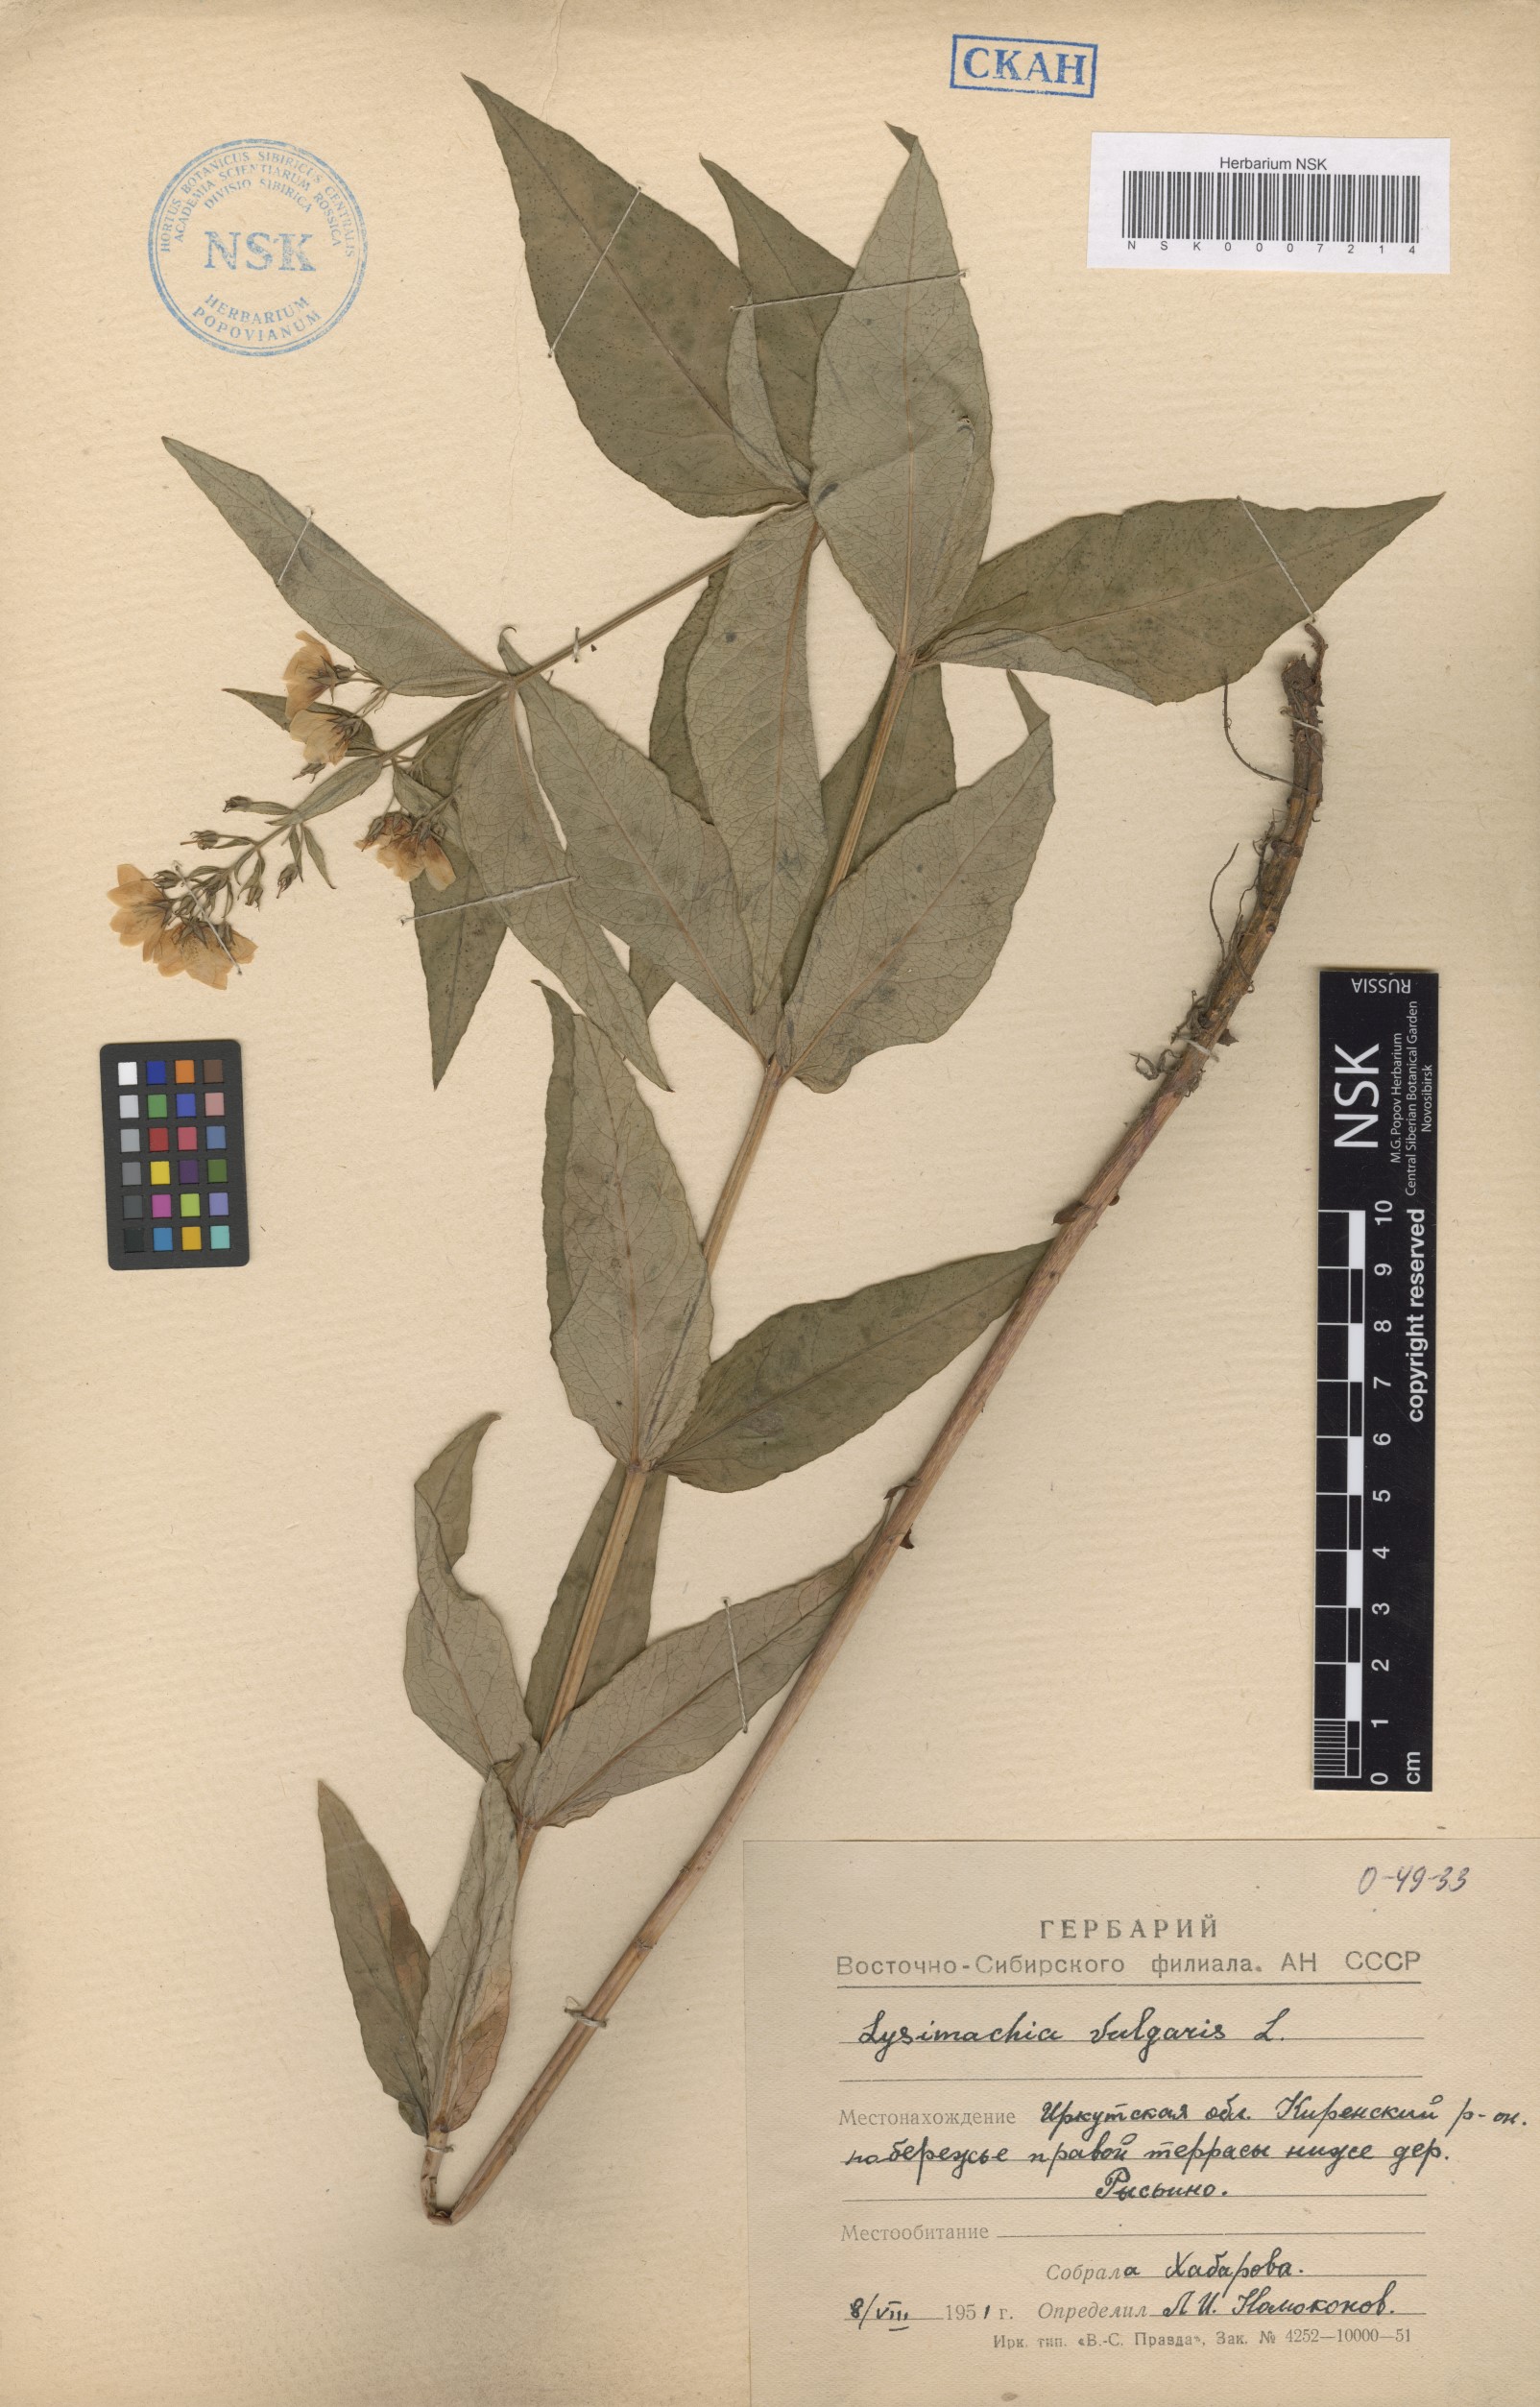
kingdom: Plantae
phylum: Tracheophyta
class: Magnoliopsida
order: Ericales
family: Primulaceae
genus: Lysimachia
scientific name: Lysimachia vulgaris
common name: Yellow loosestrife
